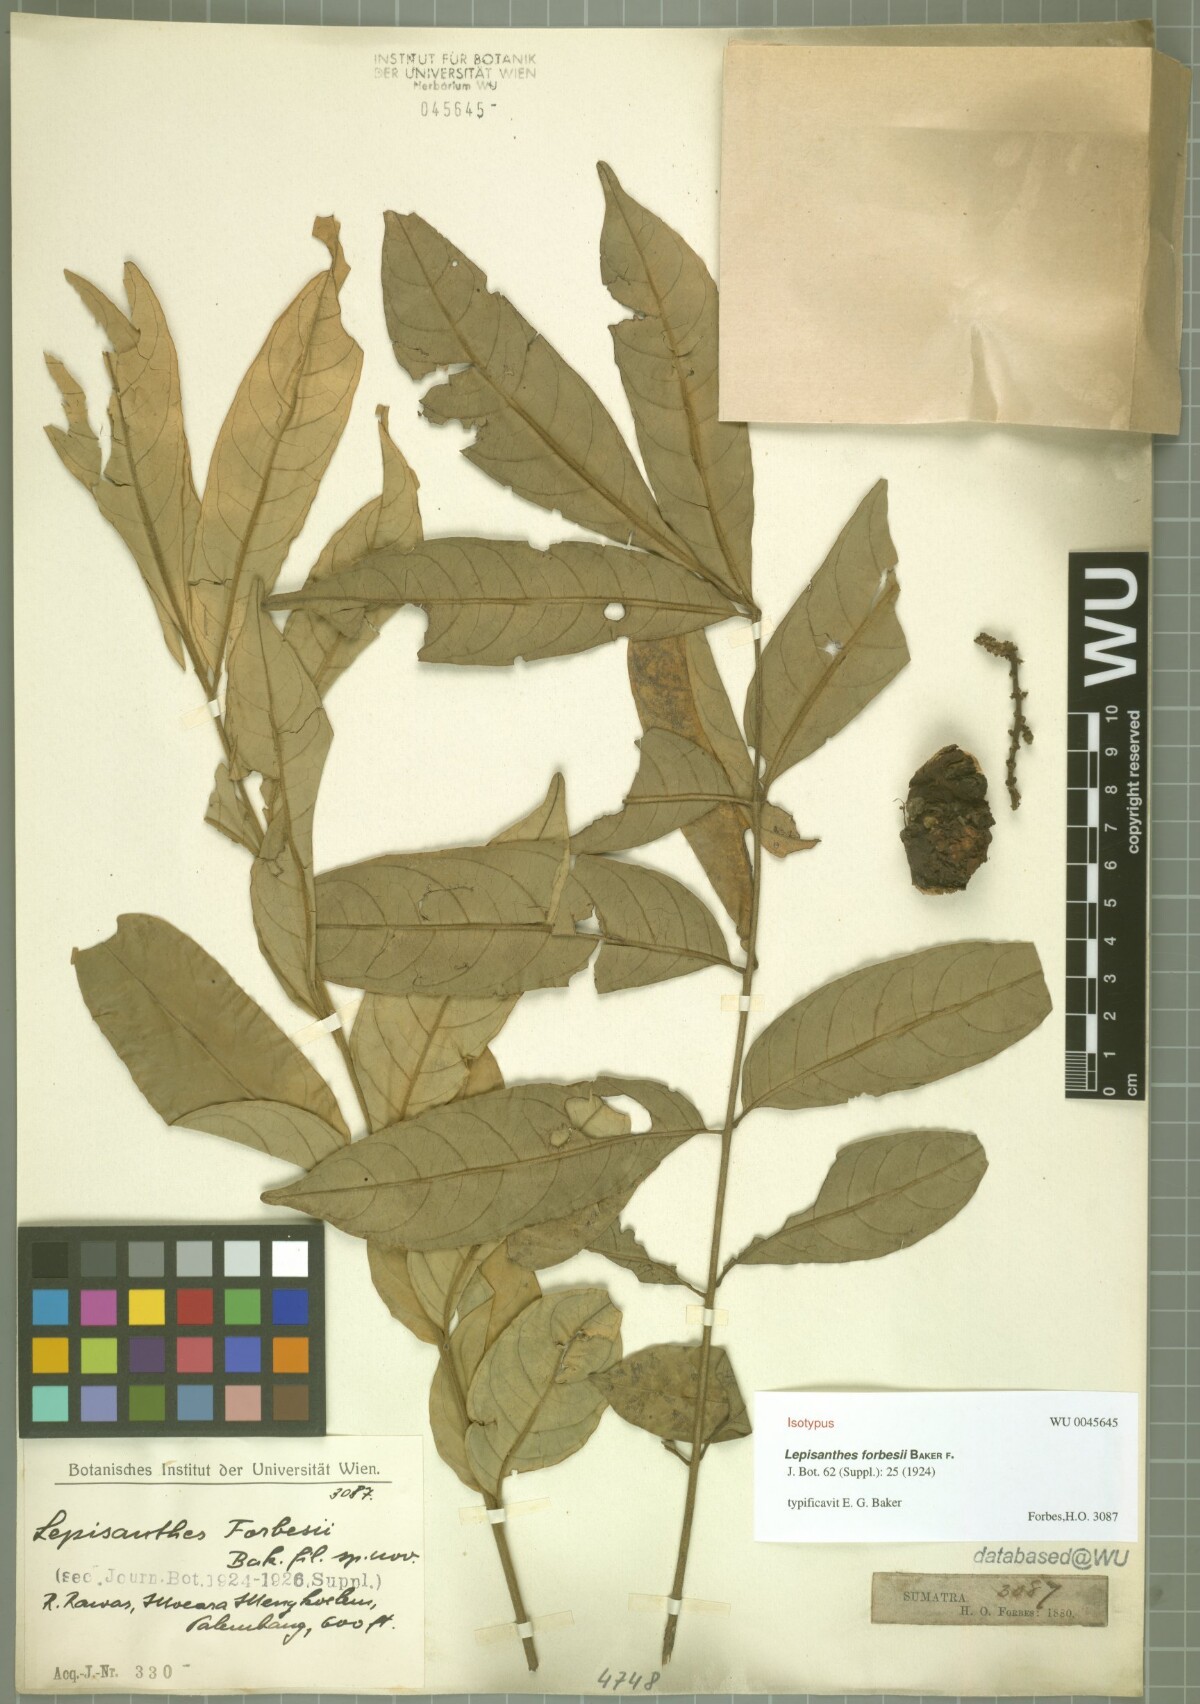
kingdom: Plantae
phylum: Tracheophyta
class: Magnoliopsida
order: Sapindales
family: Meliaceae
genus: Epicharis
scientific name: Epicharis cuneata
